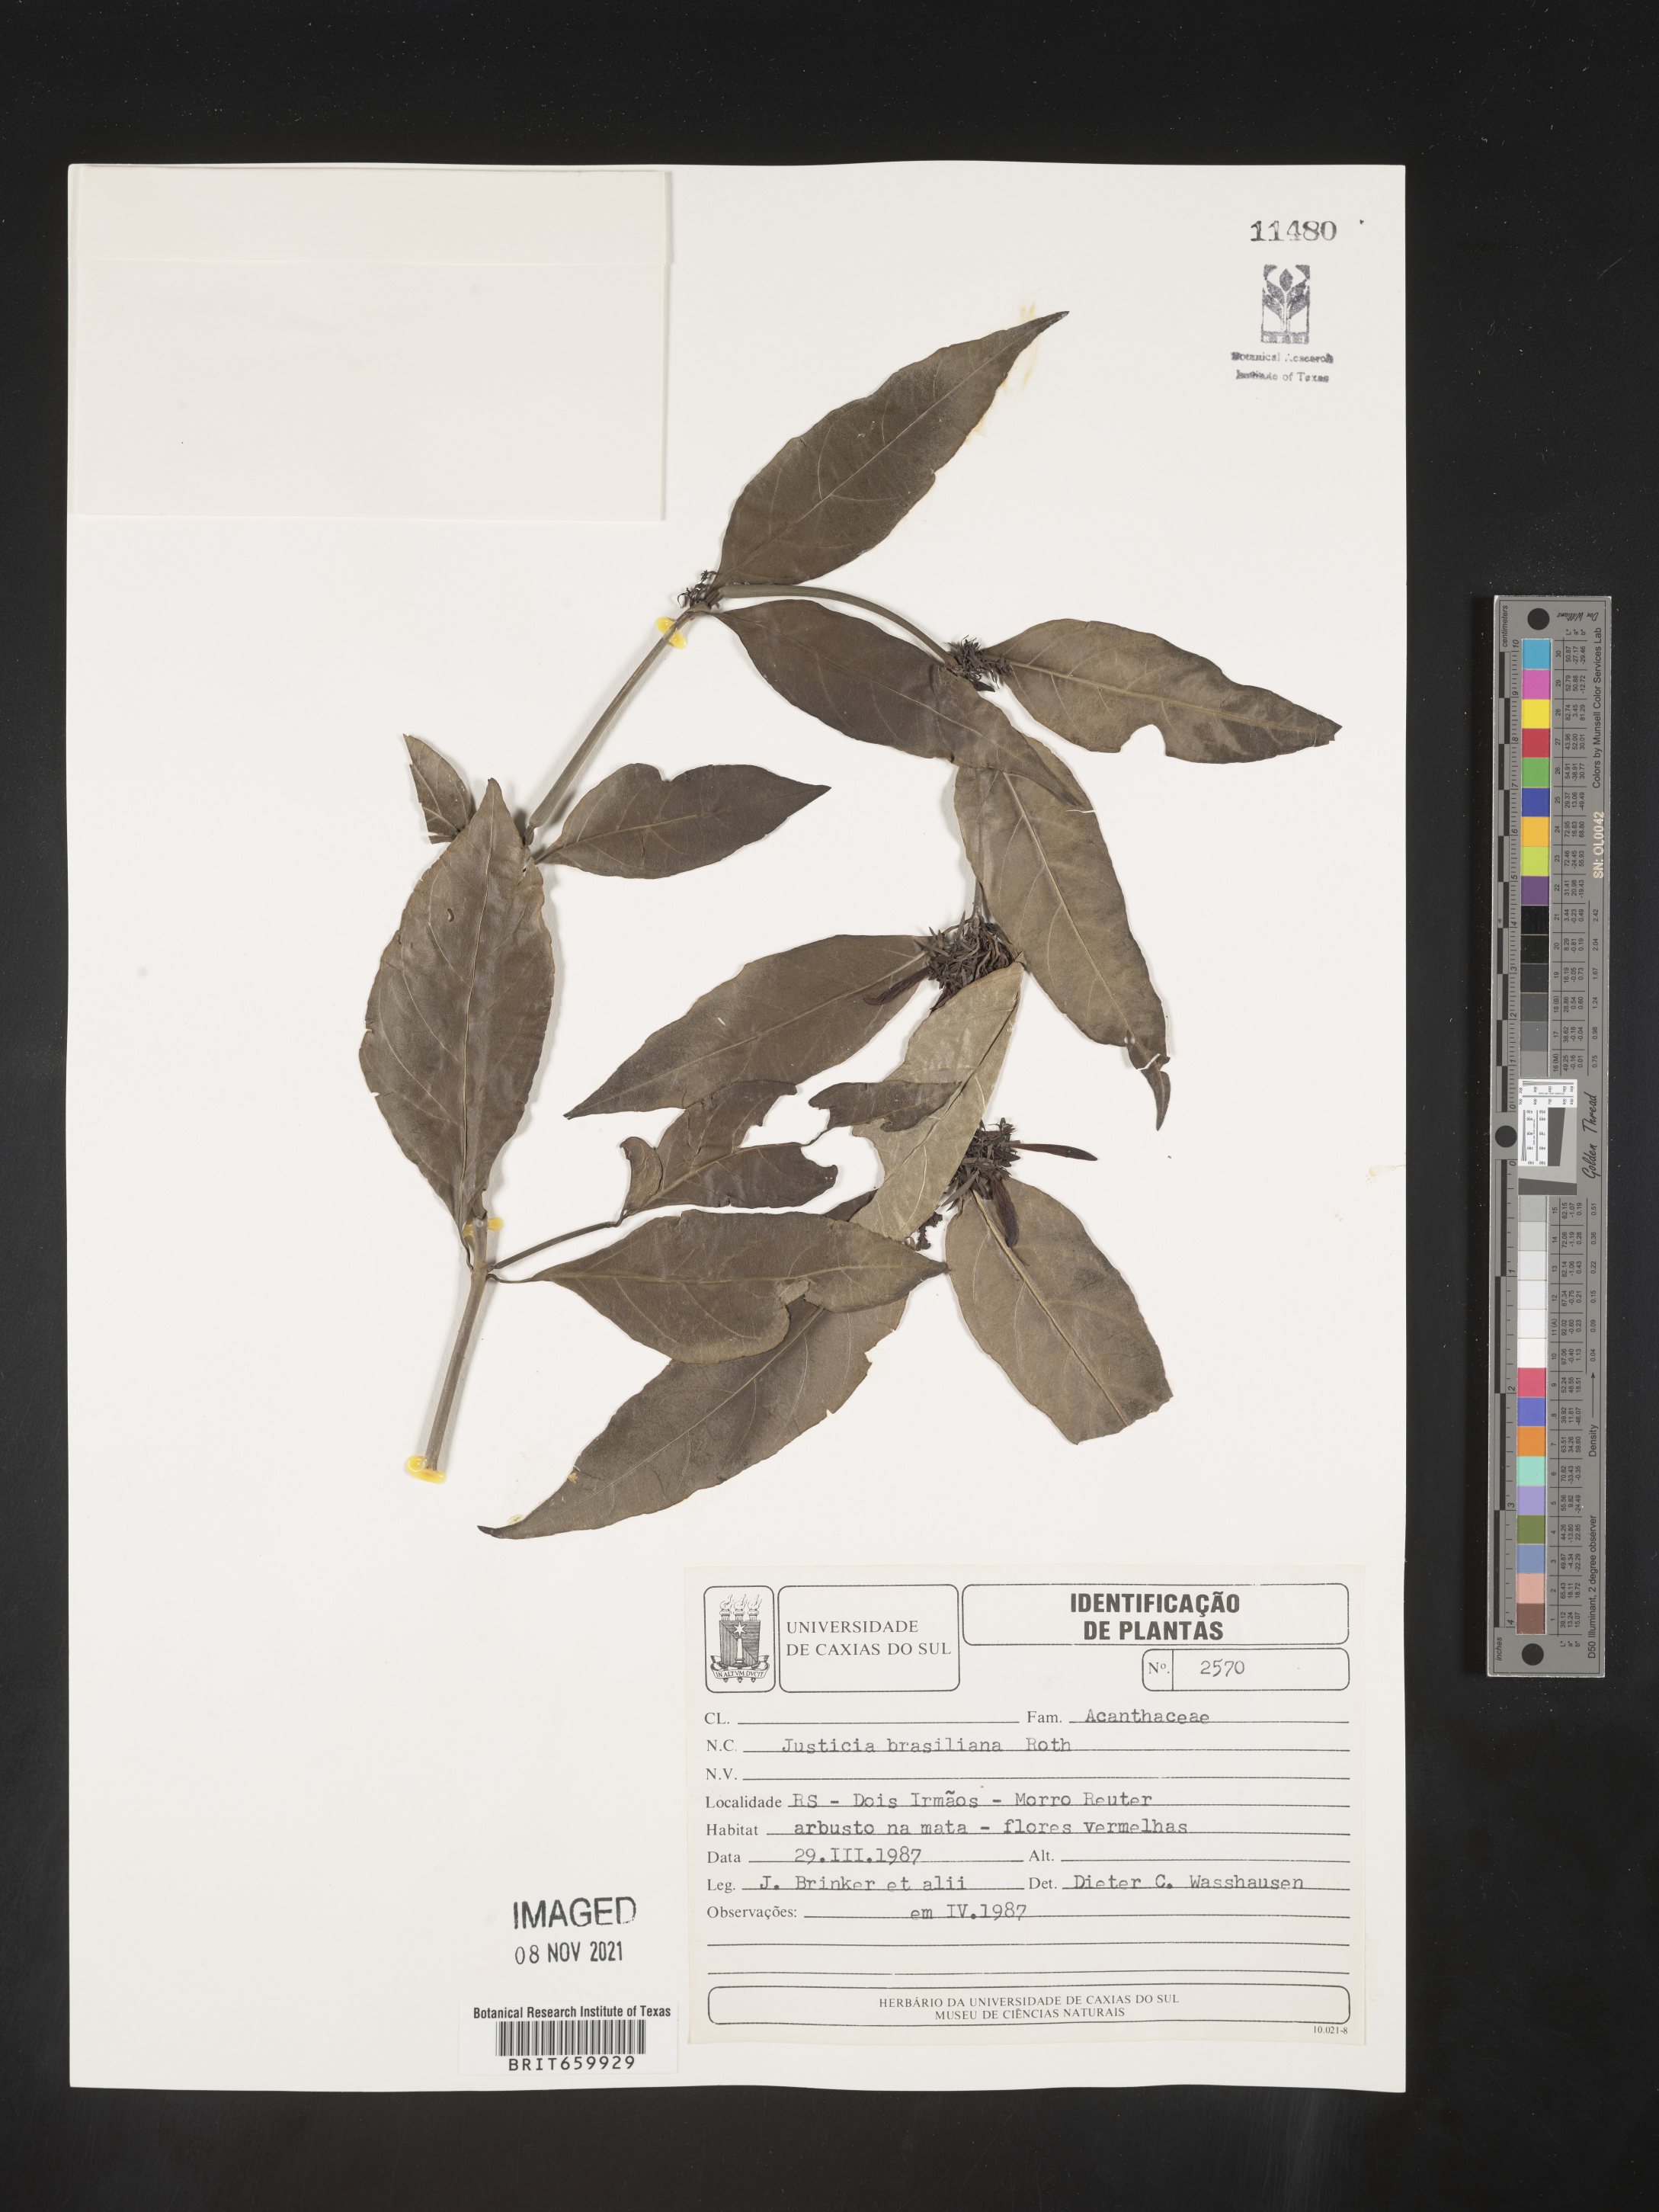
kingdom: Plantae
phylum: Tracheophyta
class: Magnoliopsida
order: Lamiales
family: Acanthaceae
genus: Justicia
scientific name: Justicia brasiliana
